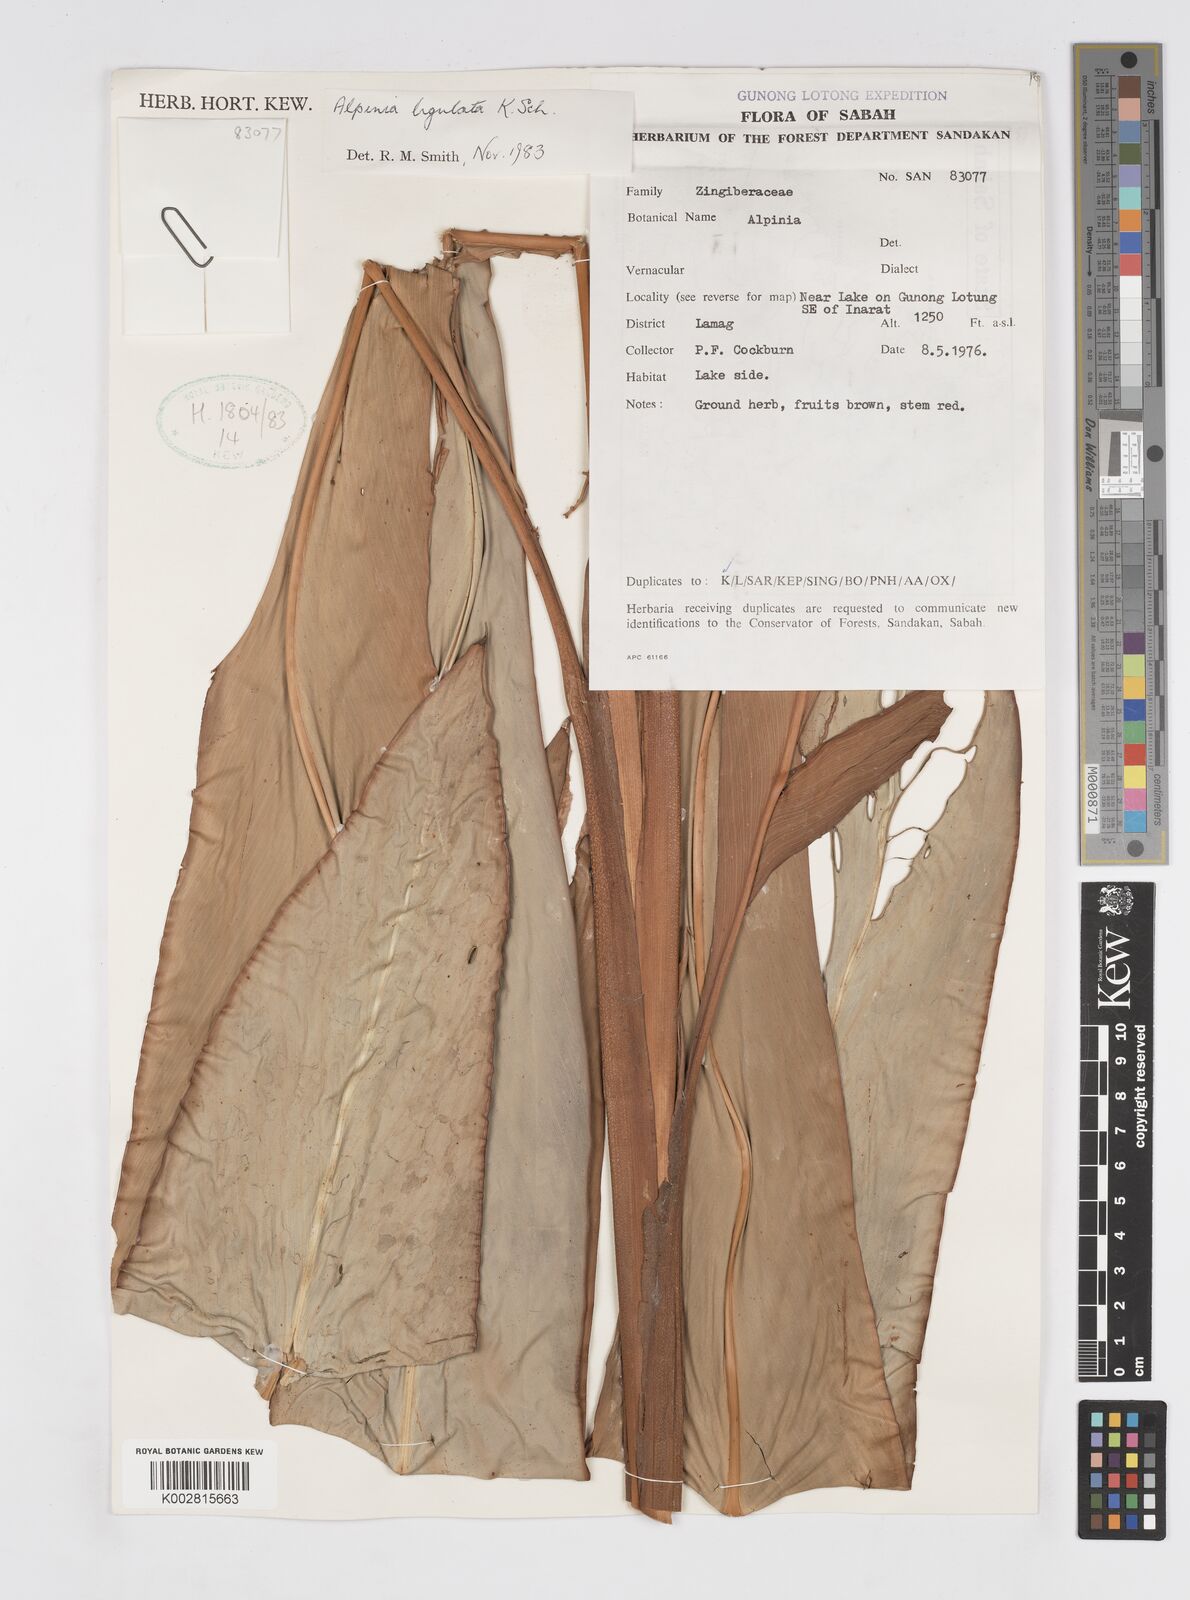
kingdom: Plantae
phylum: Tracheophyta
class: Liliopsida
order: Zingiberales
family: Zingiberaceae
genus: Alpinia
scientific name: Alpinia ligulata
